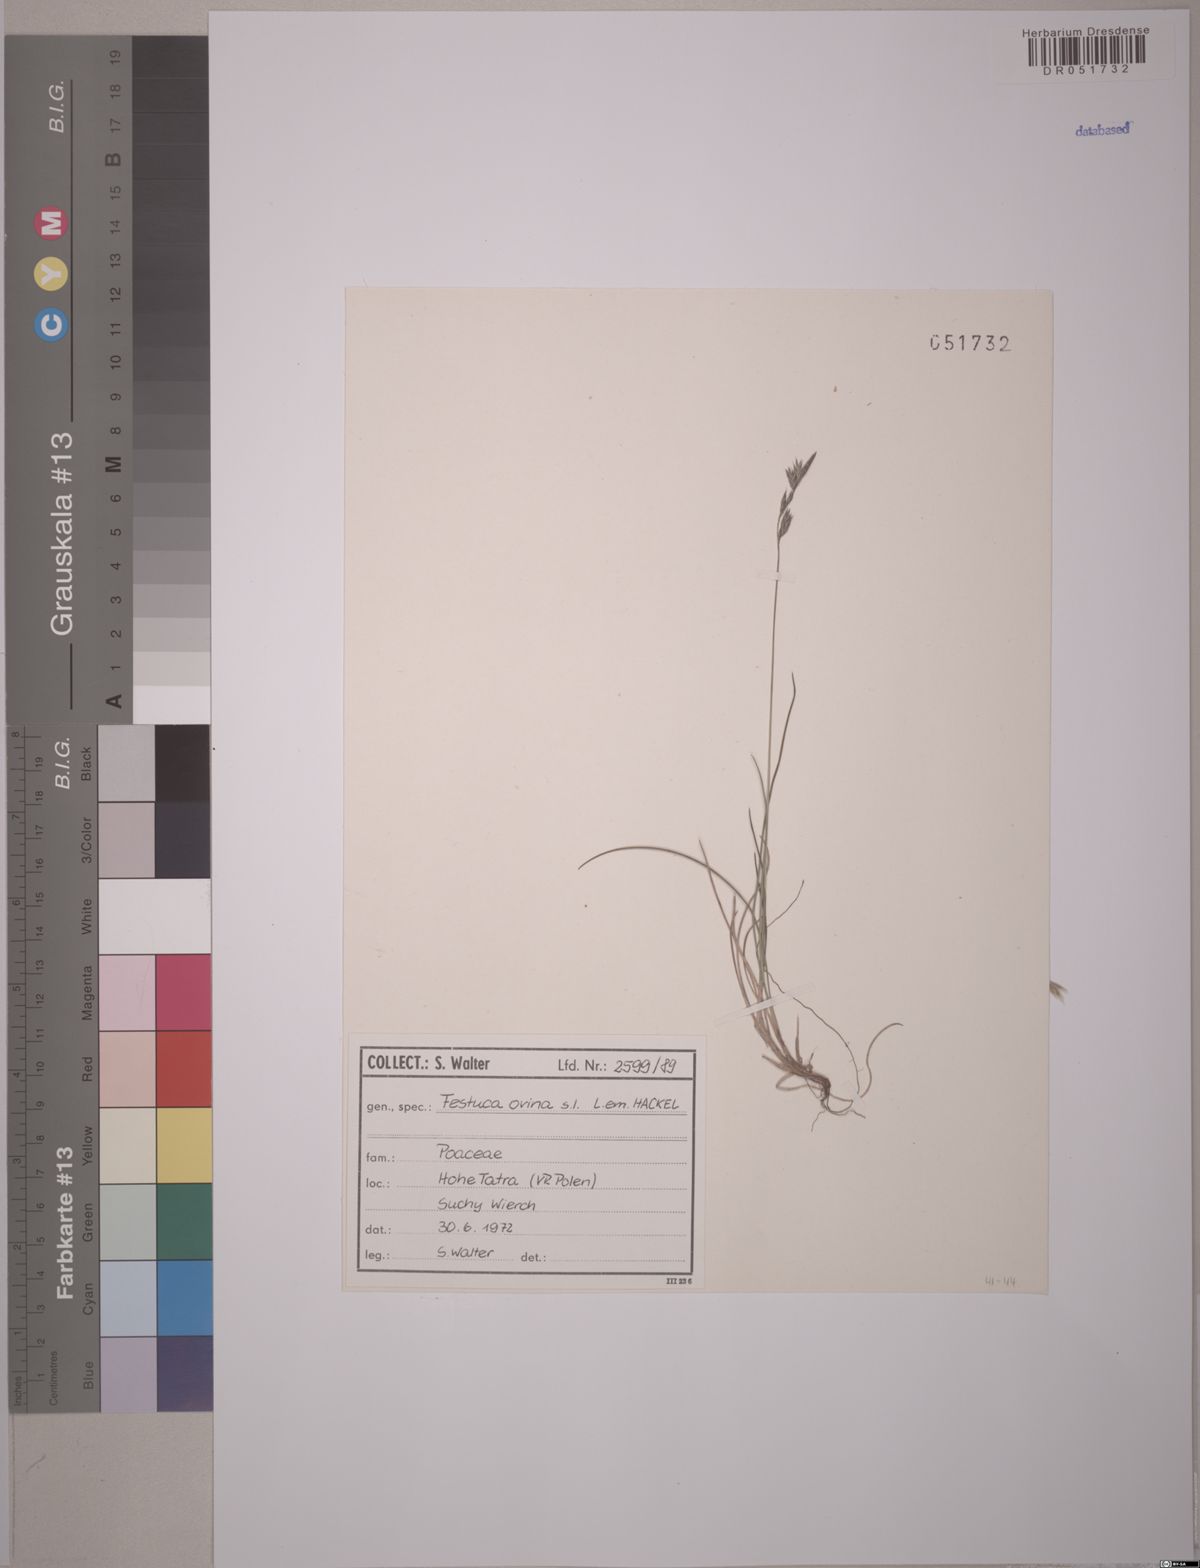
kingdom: Plantae
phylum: Tracheophyta
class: Liliopsida
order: Poales
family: Poaceae
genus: Festuca
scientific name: Festuca ovina
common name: Sheep fescue
